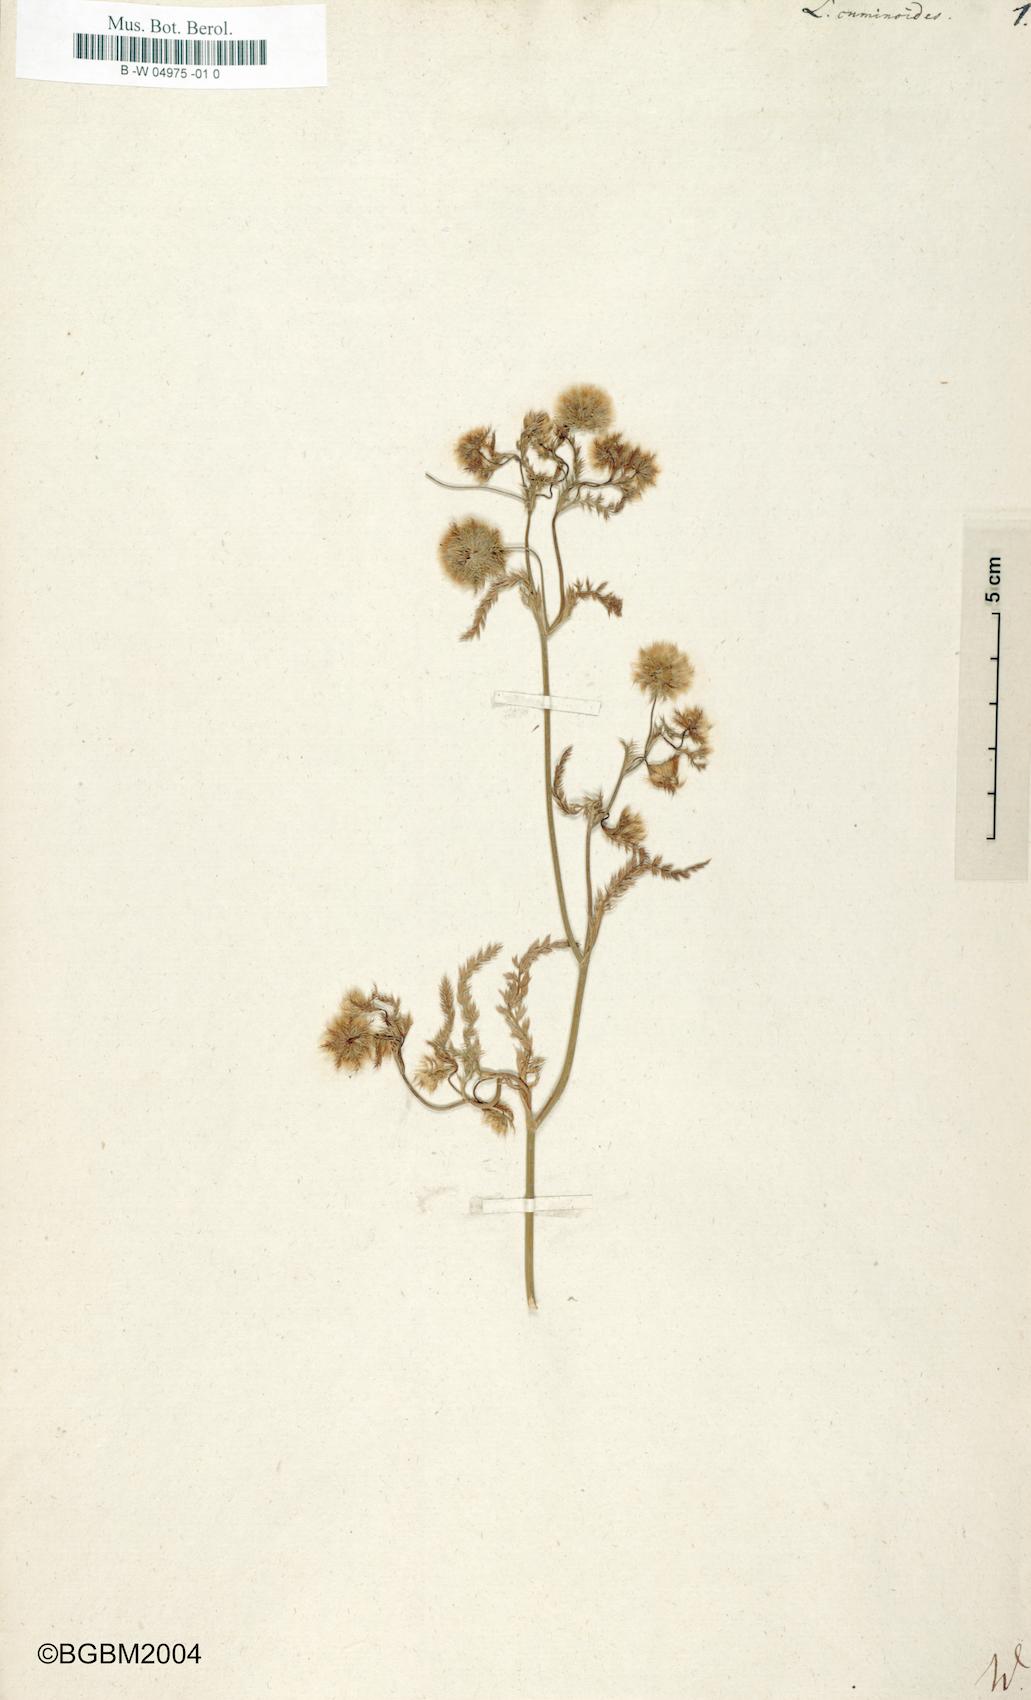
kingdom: Plantae
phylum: Tracheophyta
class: Magnoliopsida
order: Apiales
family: Apiaceae
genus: Lagoecia
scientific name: Lagoecia cuminoides
